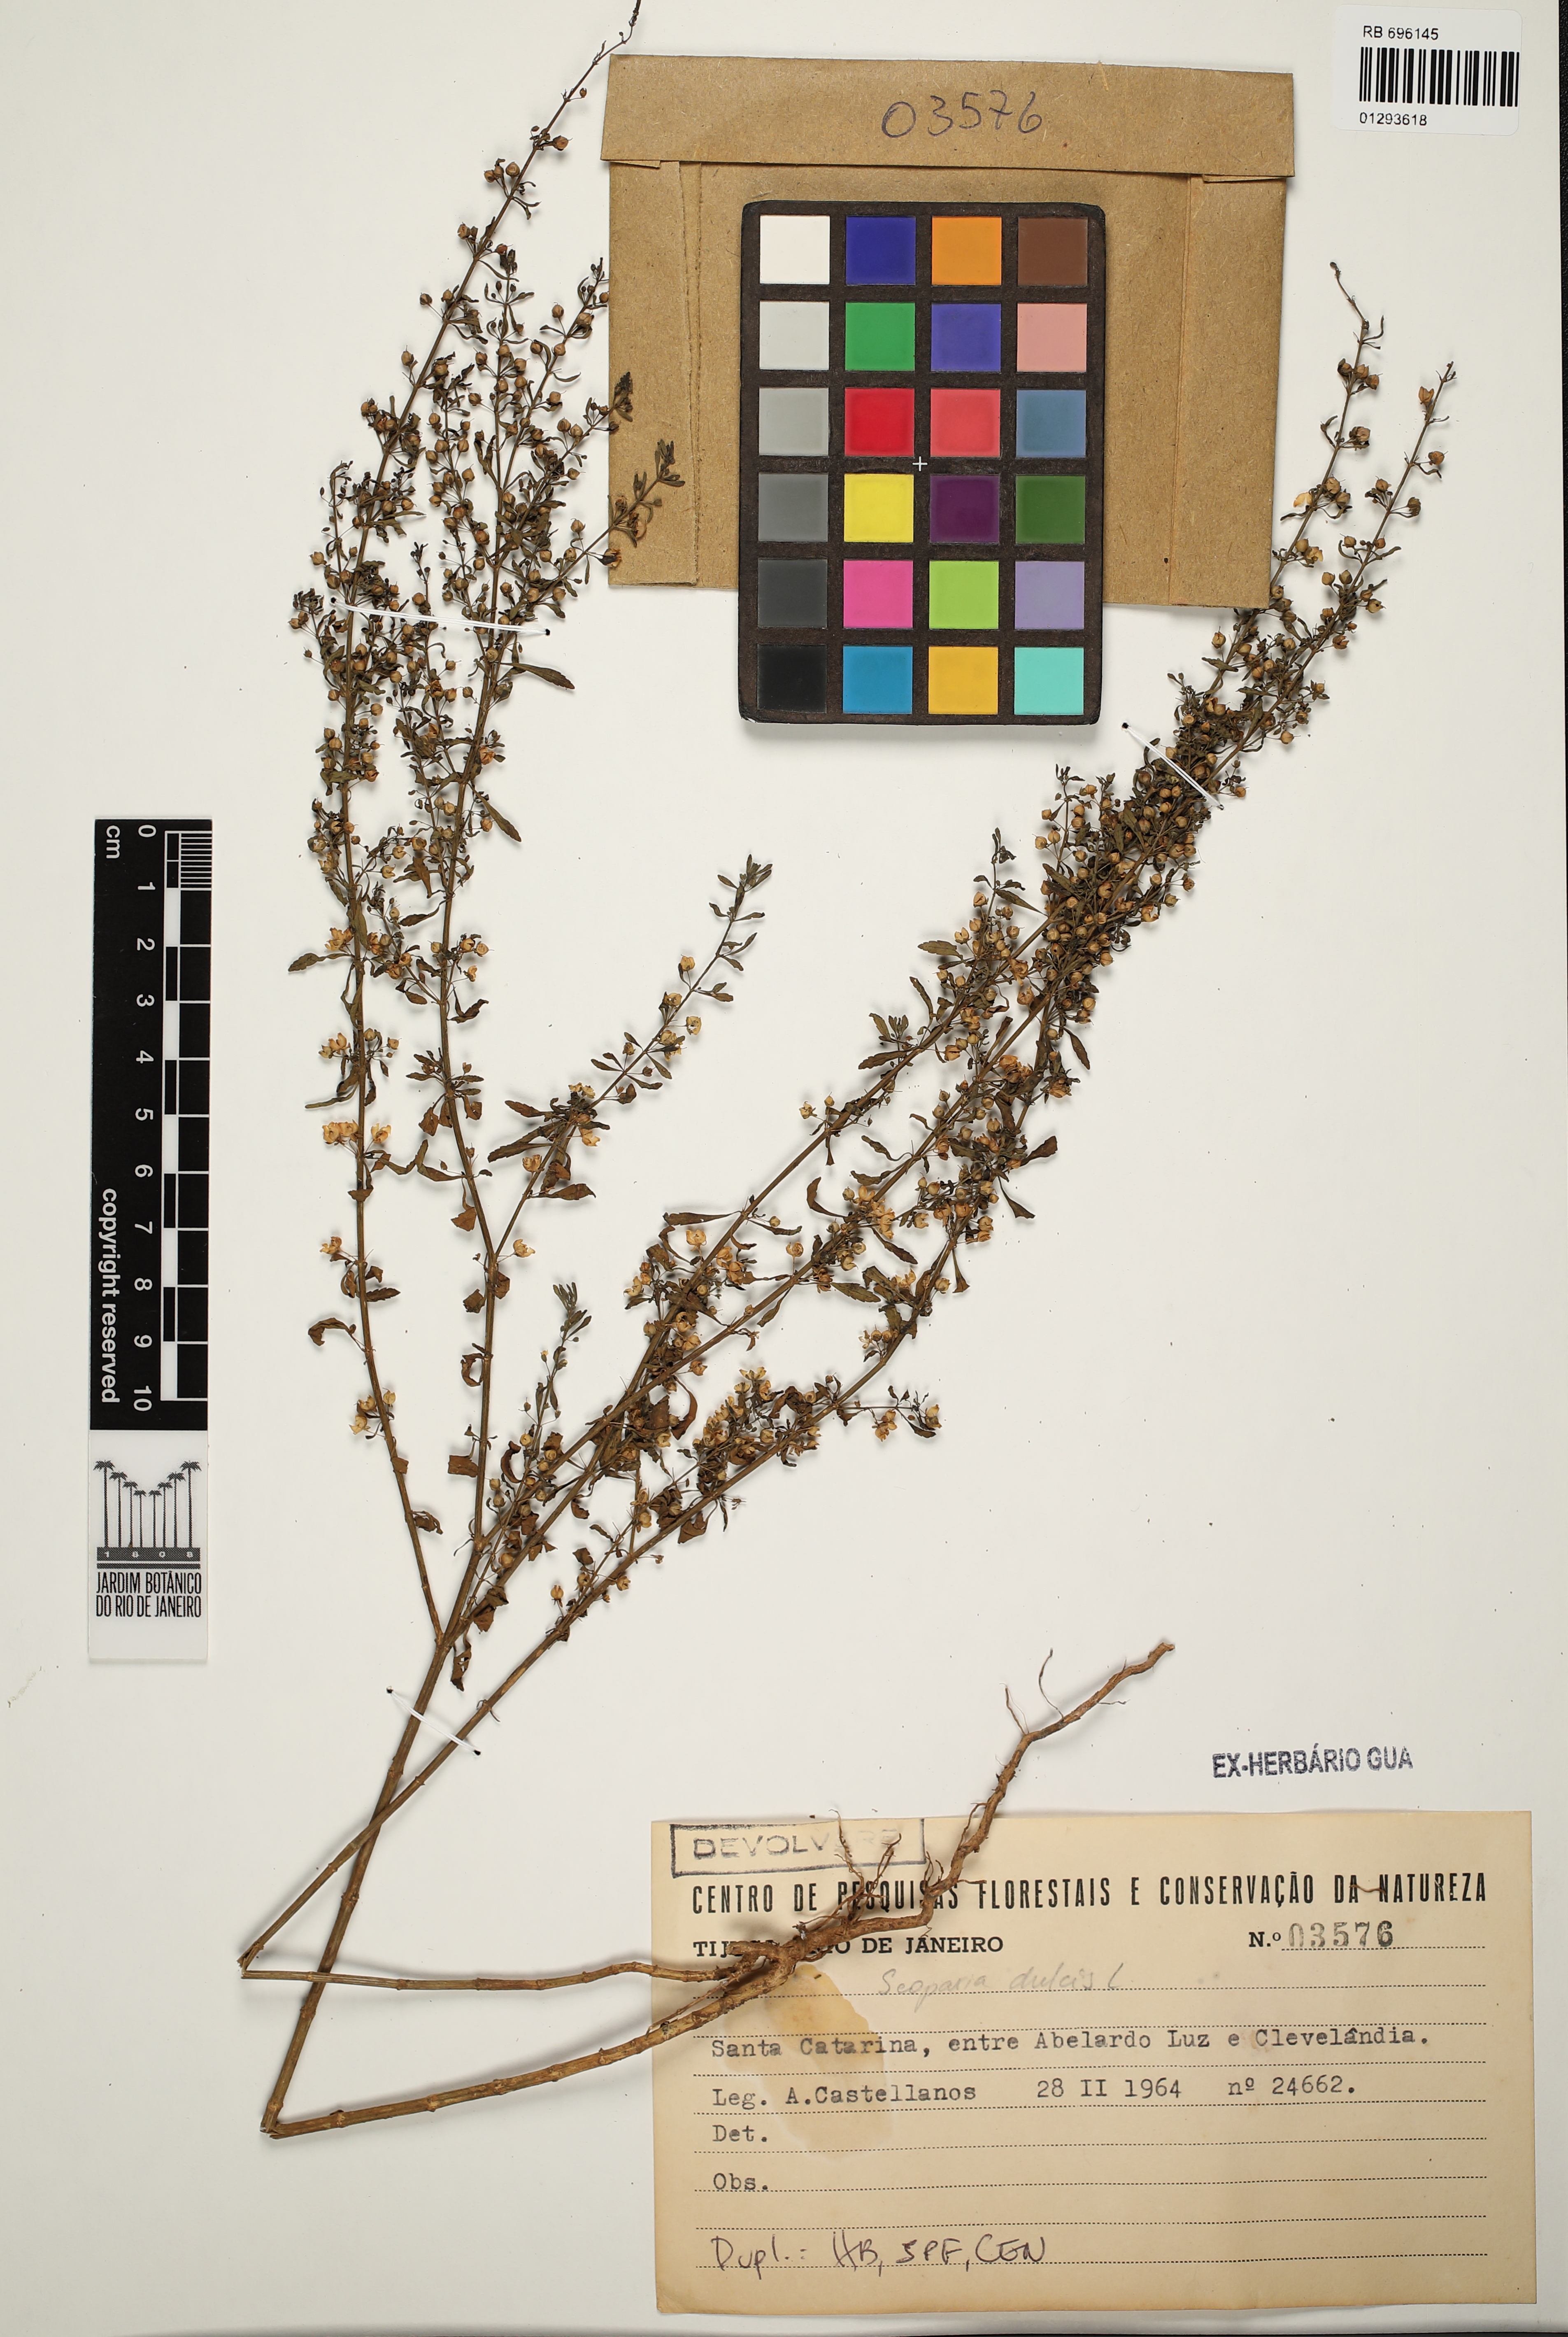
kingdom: Plantae
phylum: Tracheophyta
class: Magnoliopsida
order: Lamiales
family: Plantaginaceae
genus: Scoparia
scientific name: Scoparia dulcis
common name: Scoparia-weed
